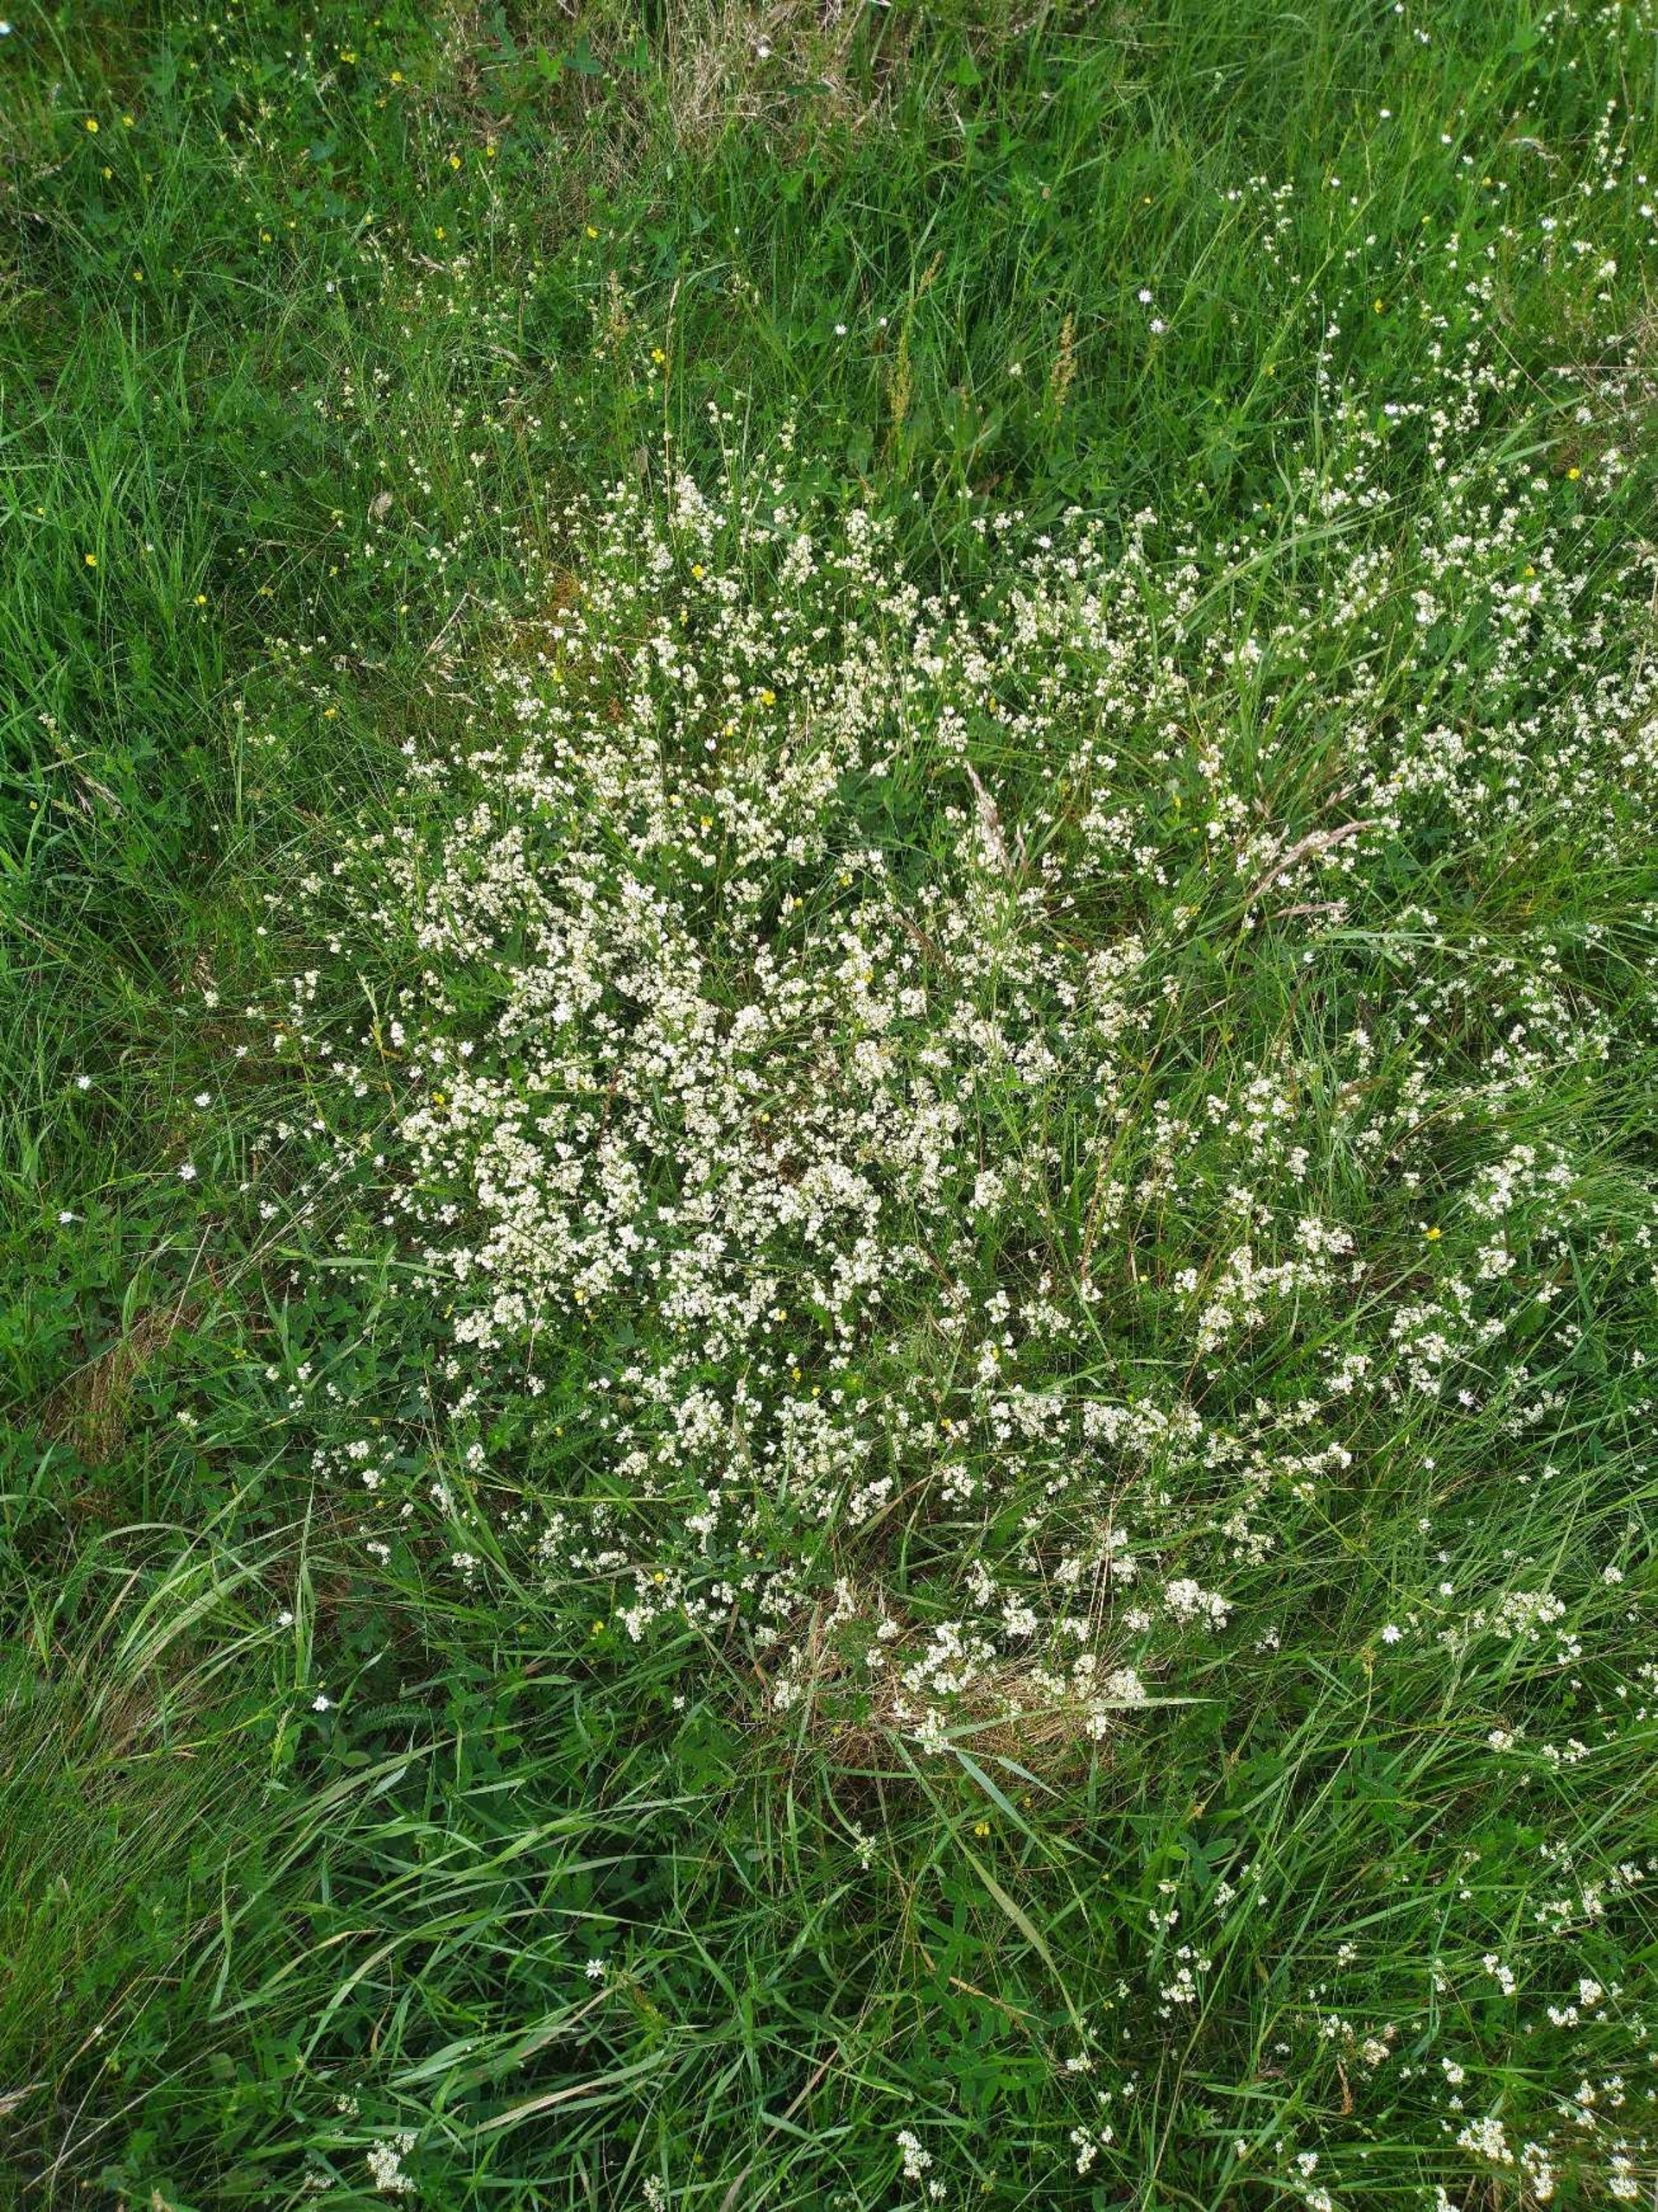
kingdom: Plantae
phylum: Tracheophyta
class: Magnoliopsida
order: Gentianales
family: Rubiaceae
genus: Galium
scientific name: Galium saxatile
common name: Lyng-snerre
